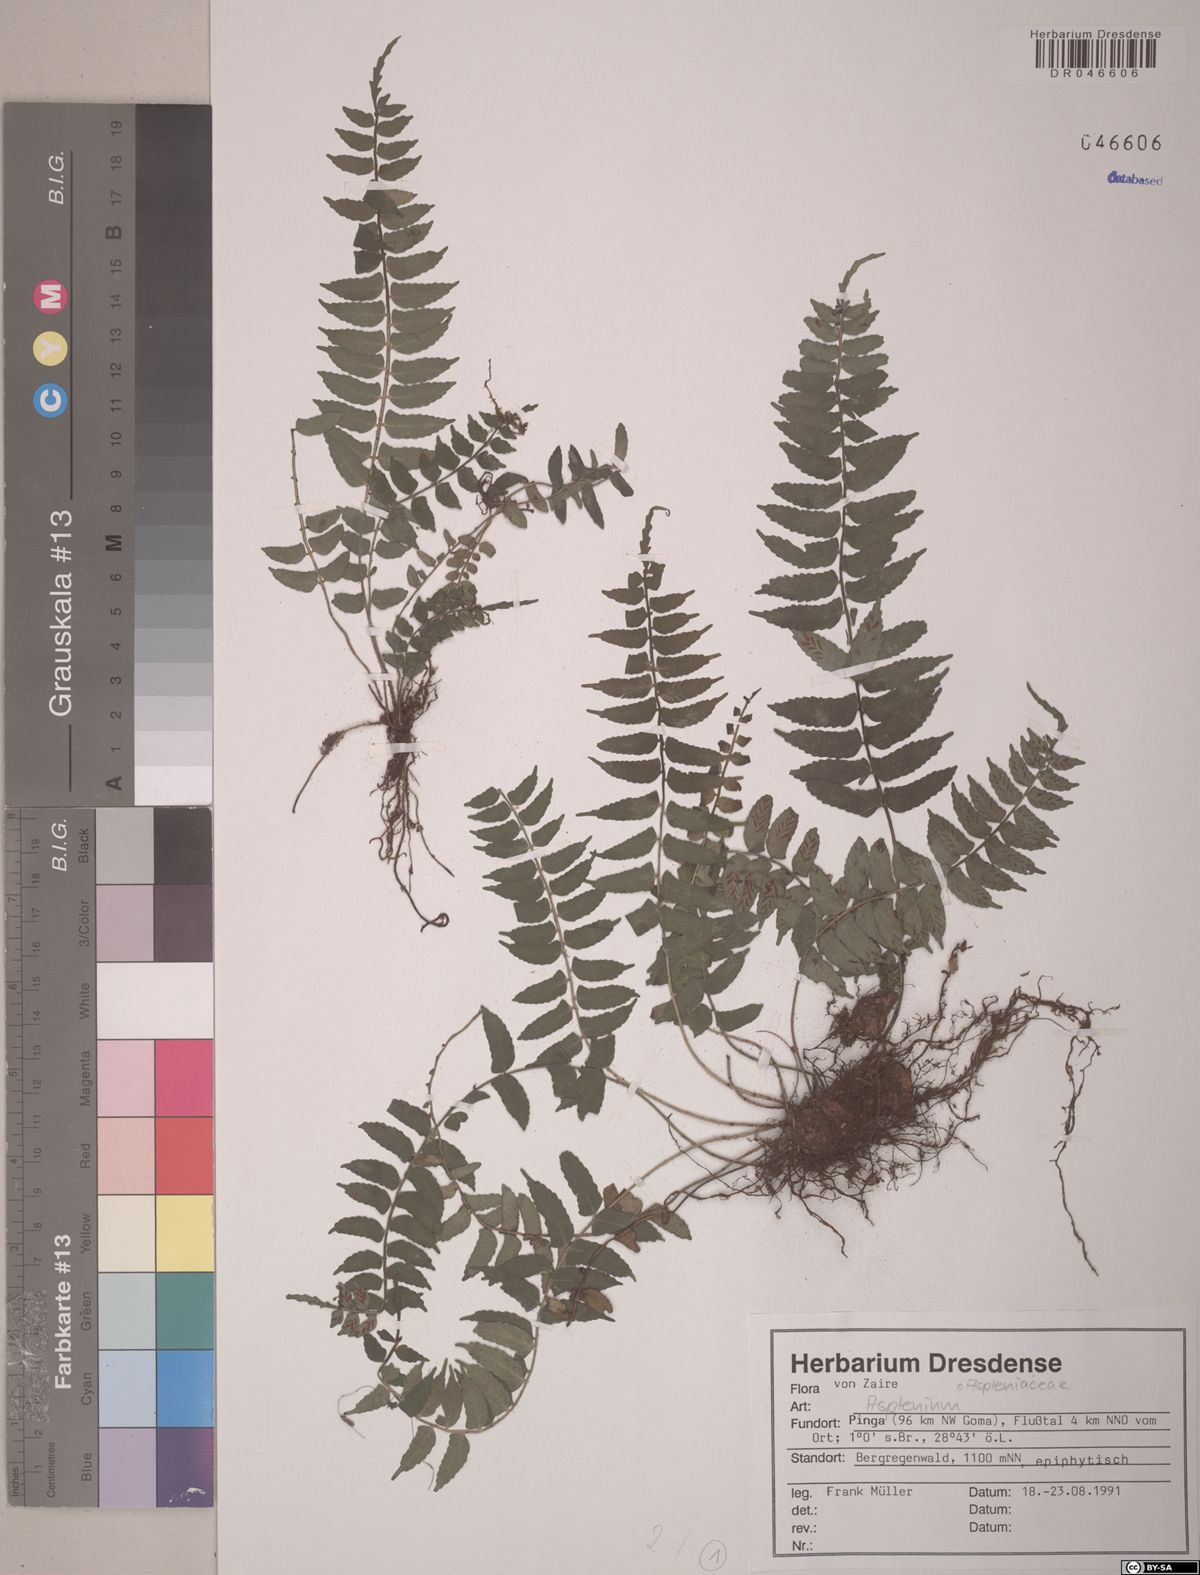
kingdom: Plantae
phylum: Tracheophyta
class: Polypodiopsida
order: Polypodiales
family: Aspleniaceae
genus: Asplenium
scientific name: Asplenium
